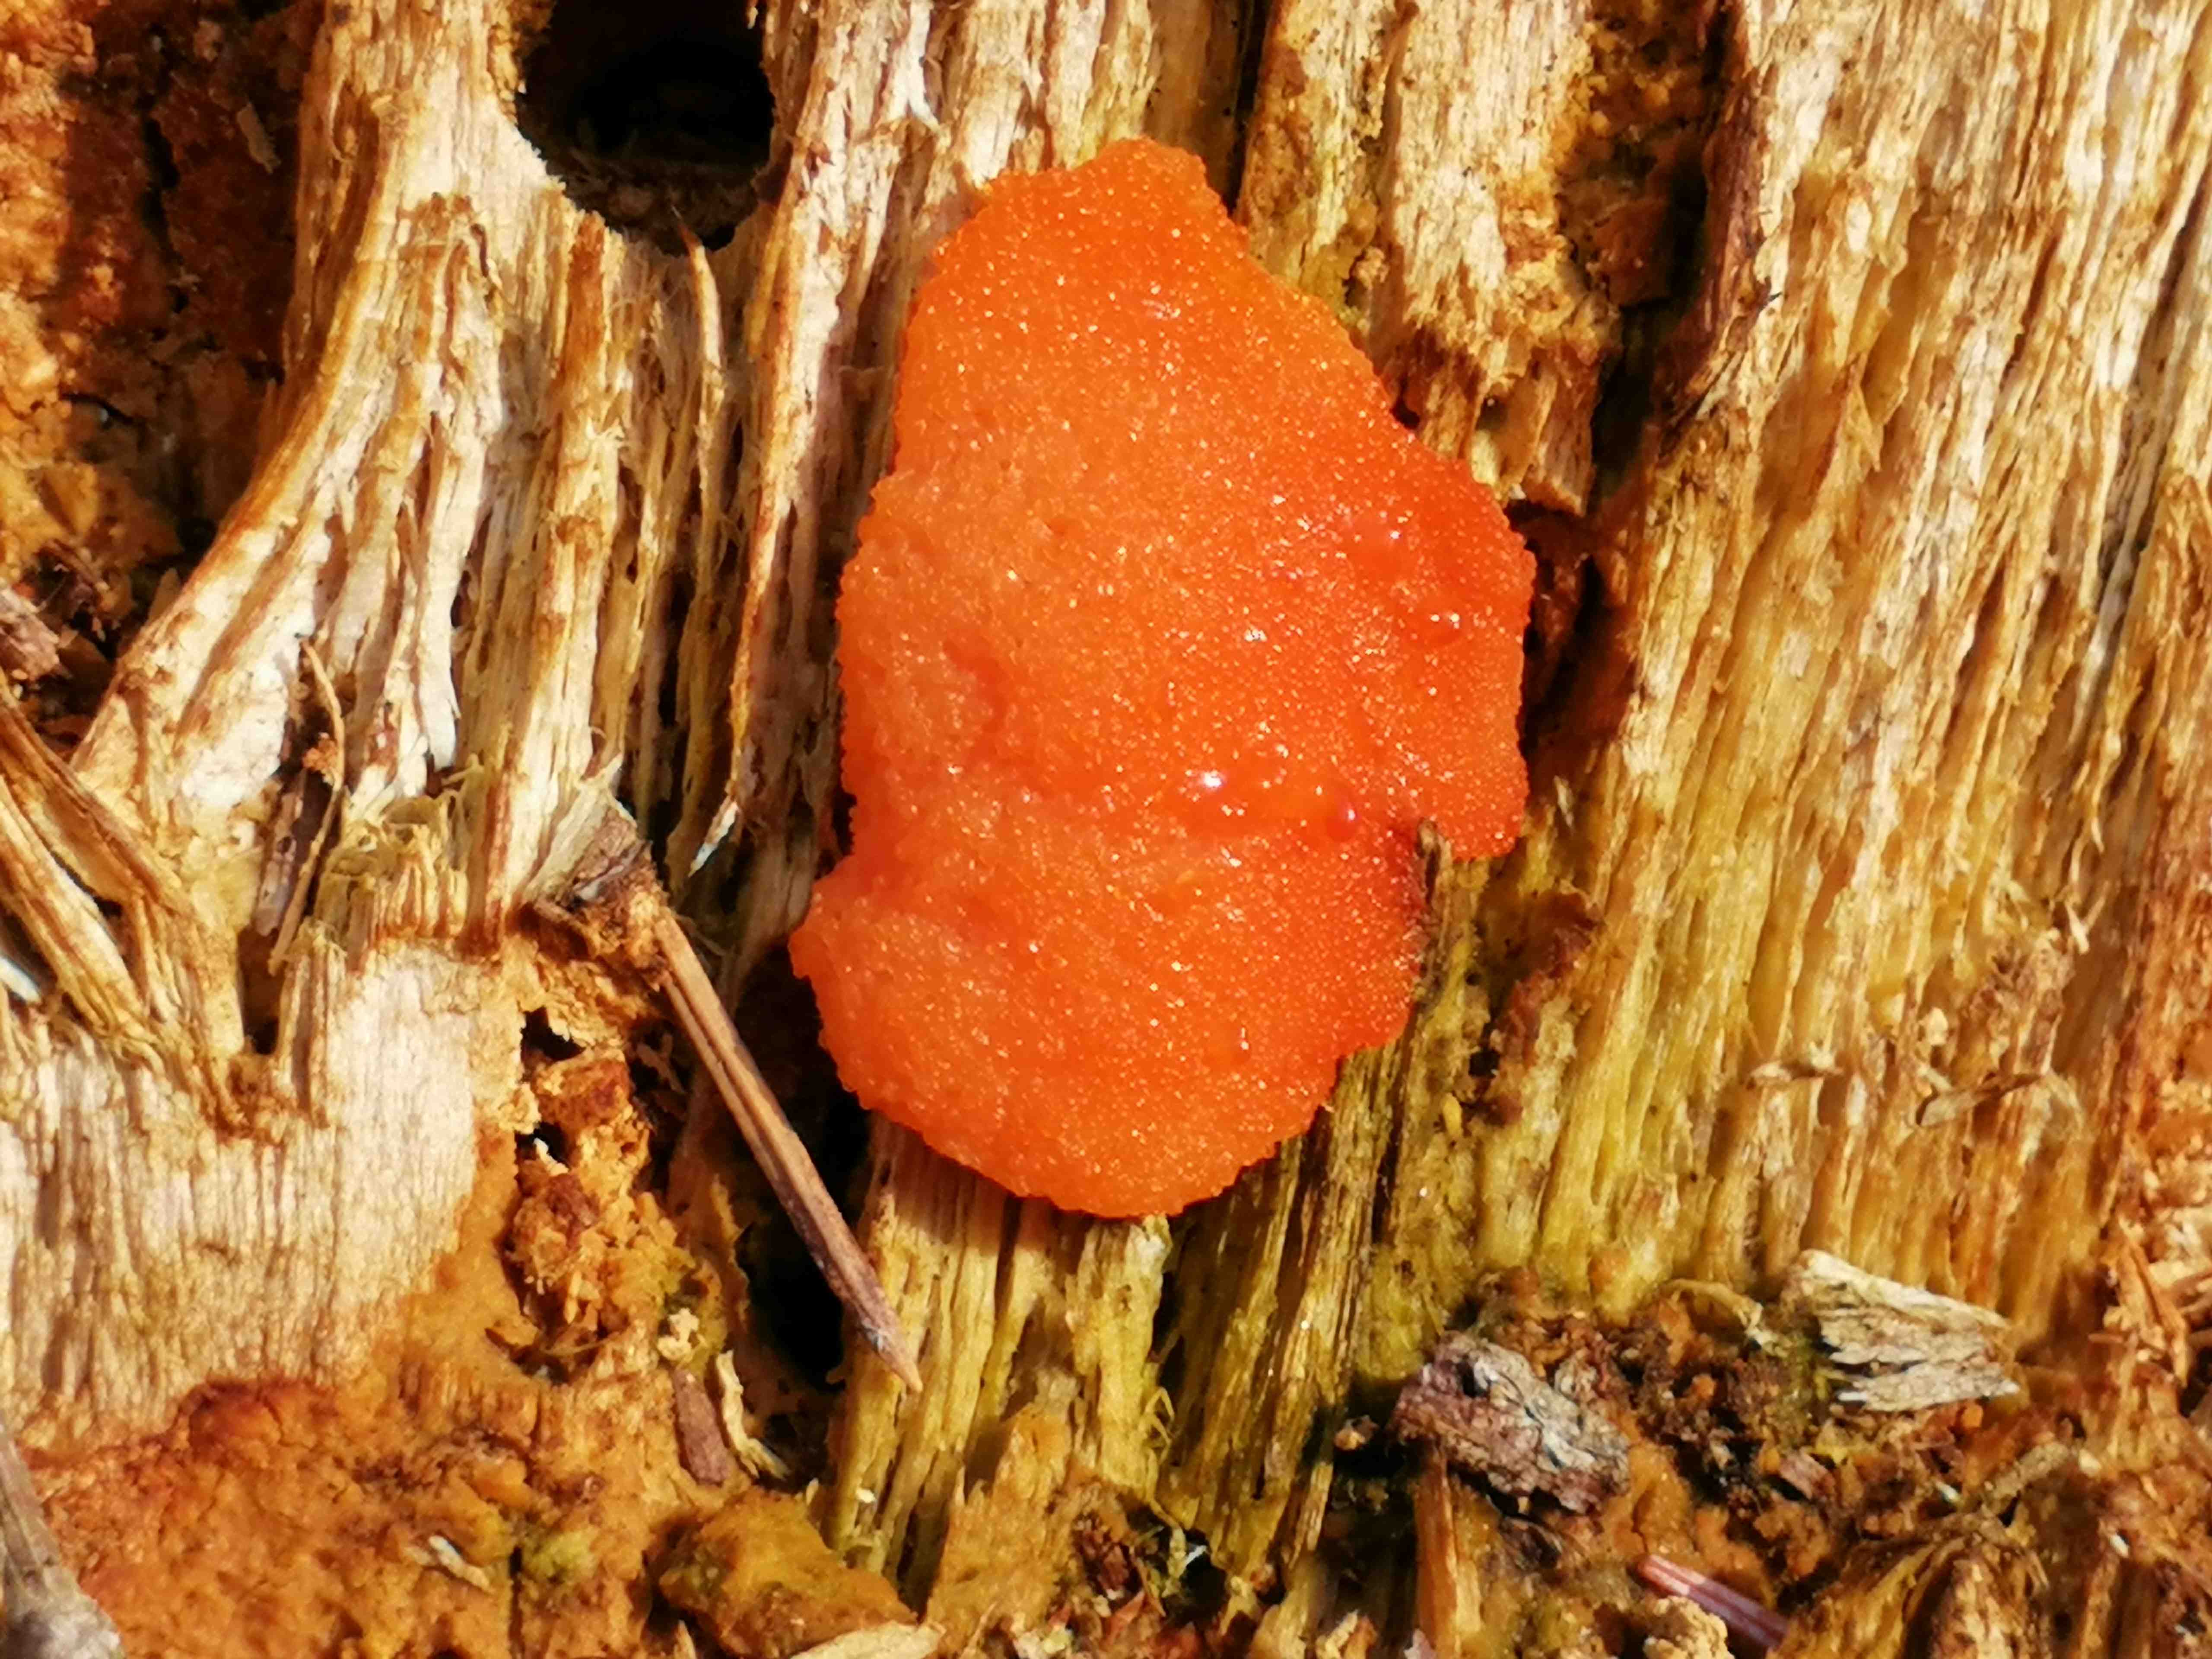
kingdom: Protozoa
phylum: Mycetozoa
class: Myxomycetes
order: Cribrariales
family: Tubiferaceae
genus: Tubifera
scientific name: Tubifera ferruginosa
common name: kanel-støvrør
